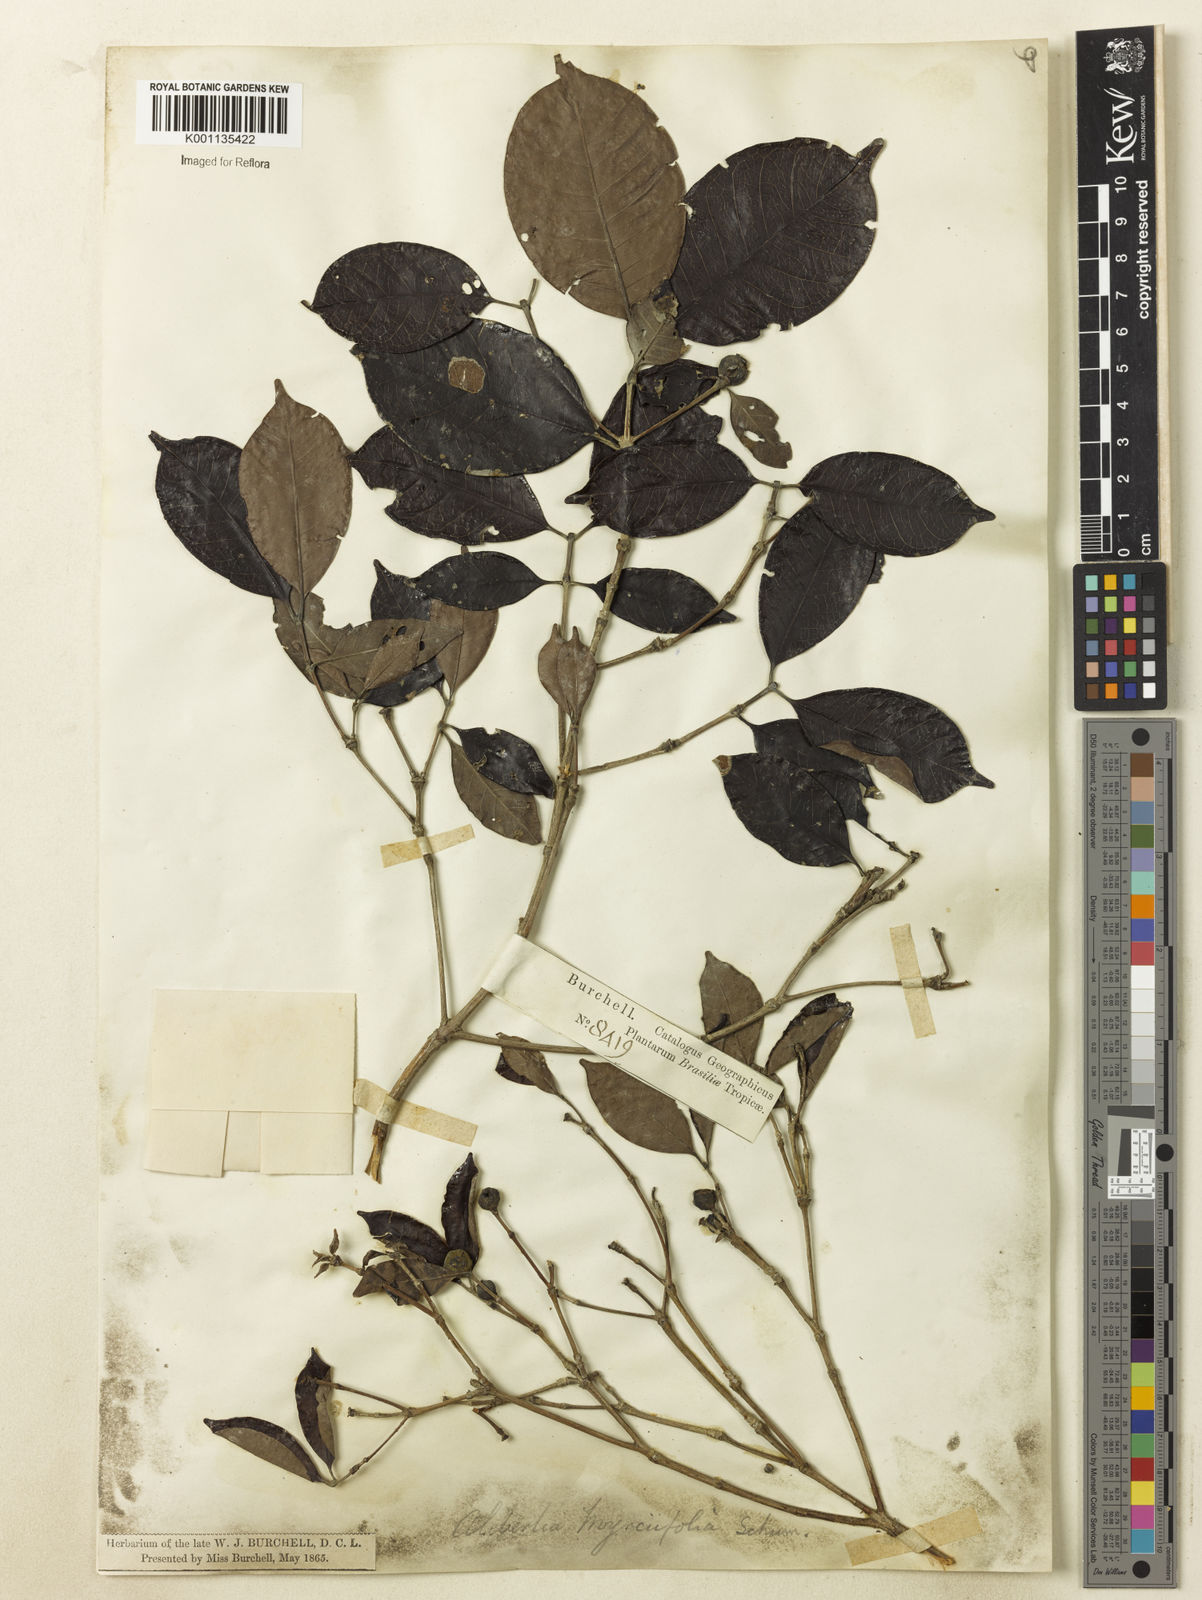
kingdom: Plantae
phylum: Tracheophyta
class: Magnoliopsida
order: Gentianales
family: Rubiaceae
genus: Cordiera
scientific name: Cordiera myrciifolia
